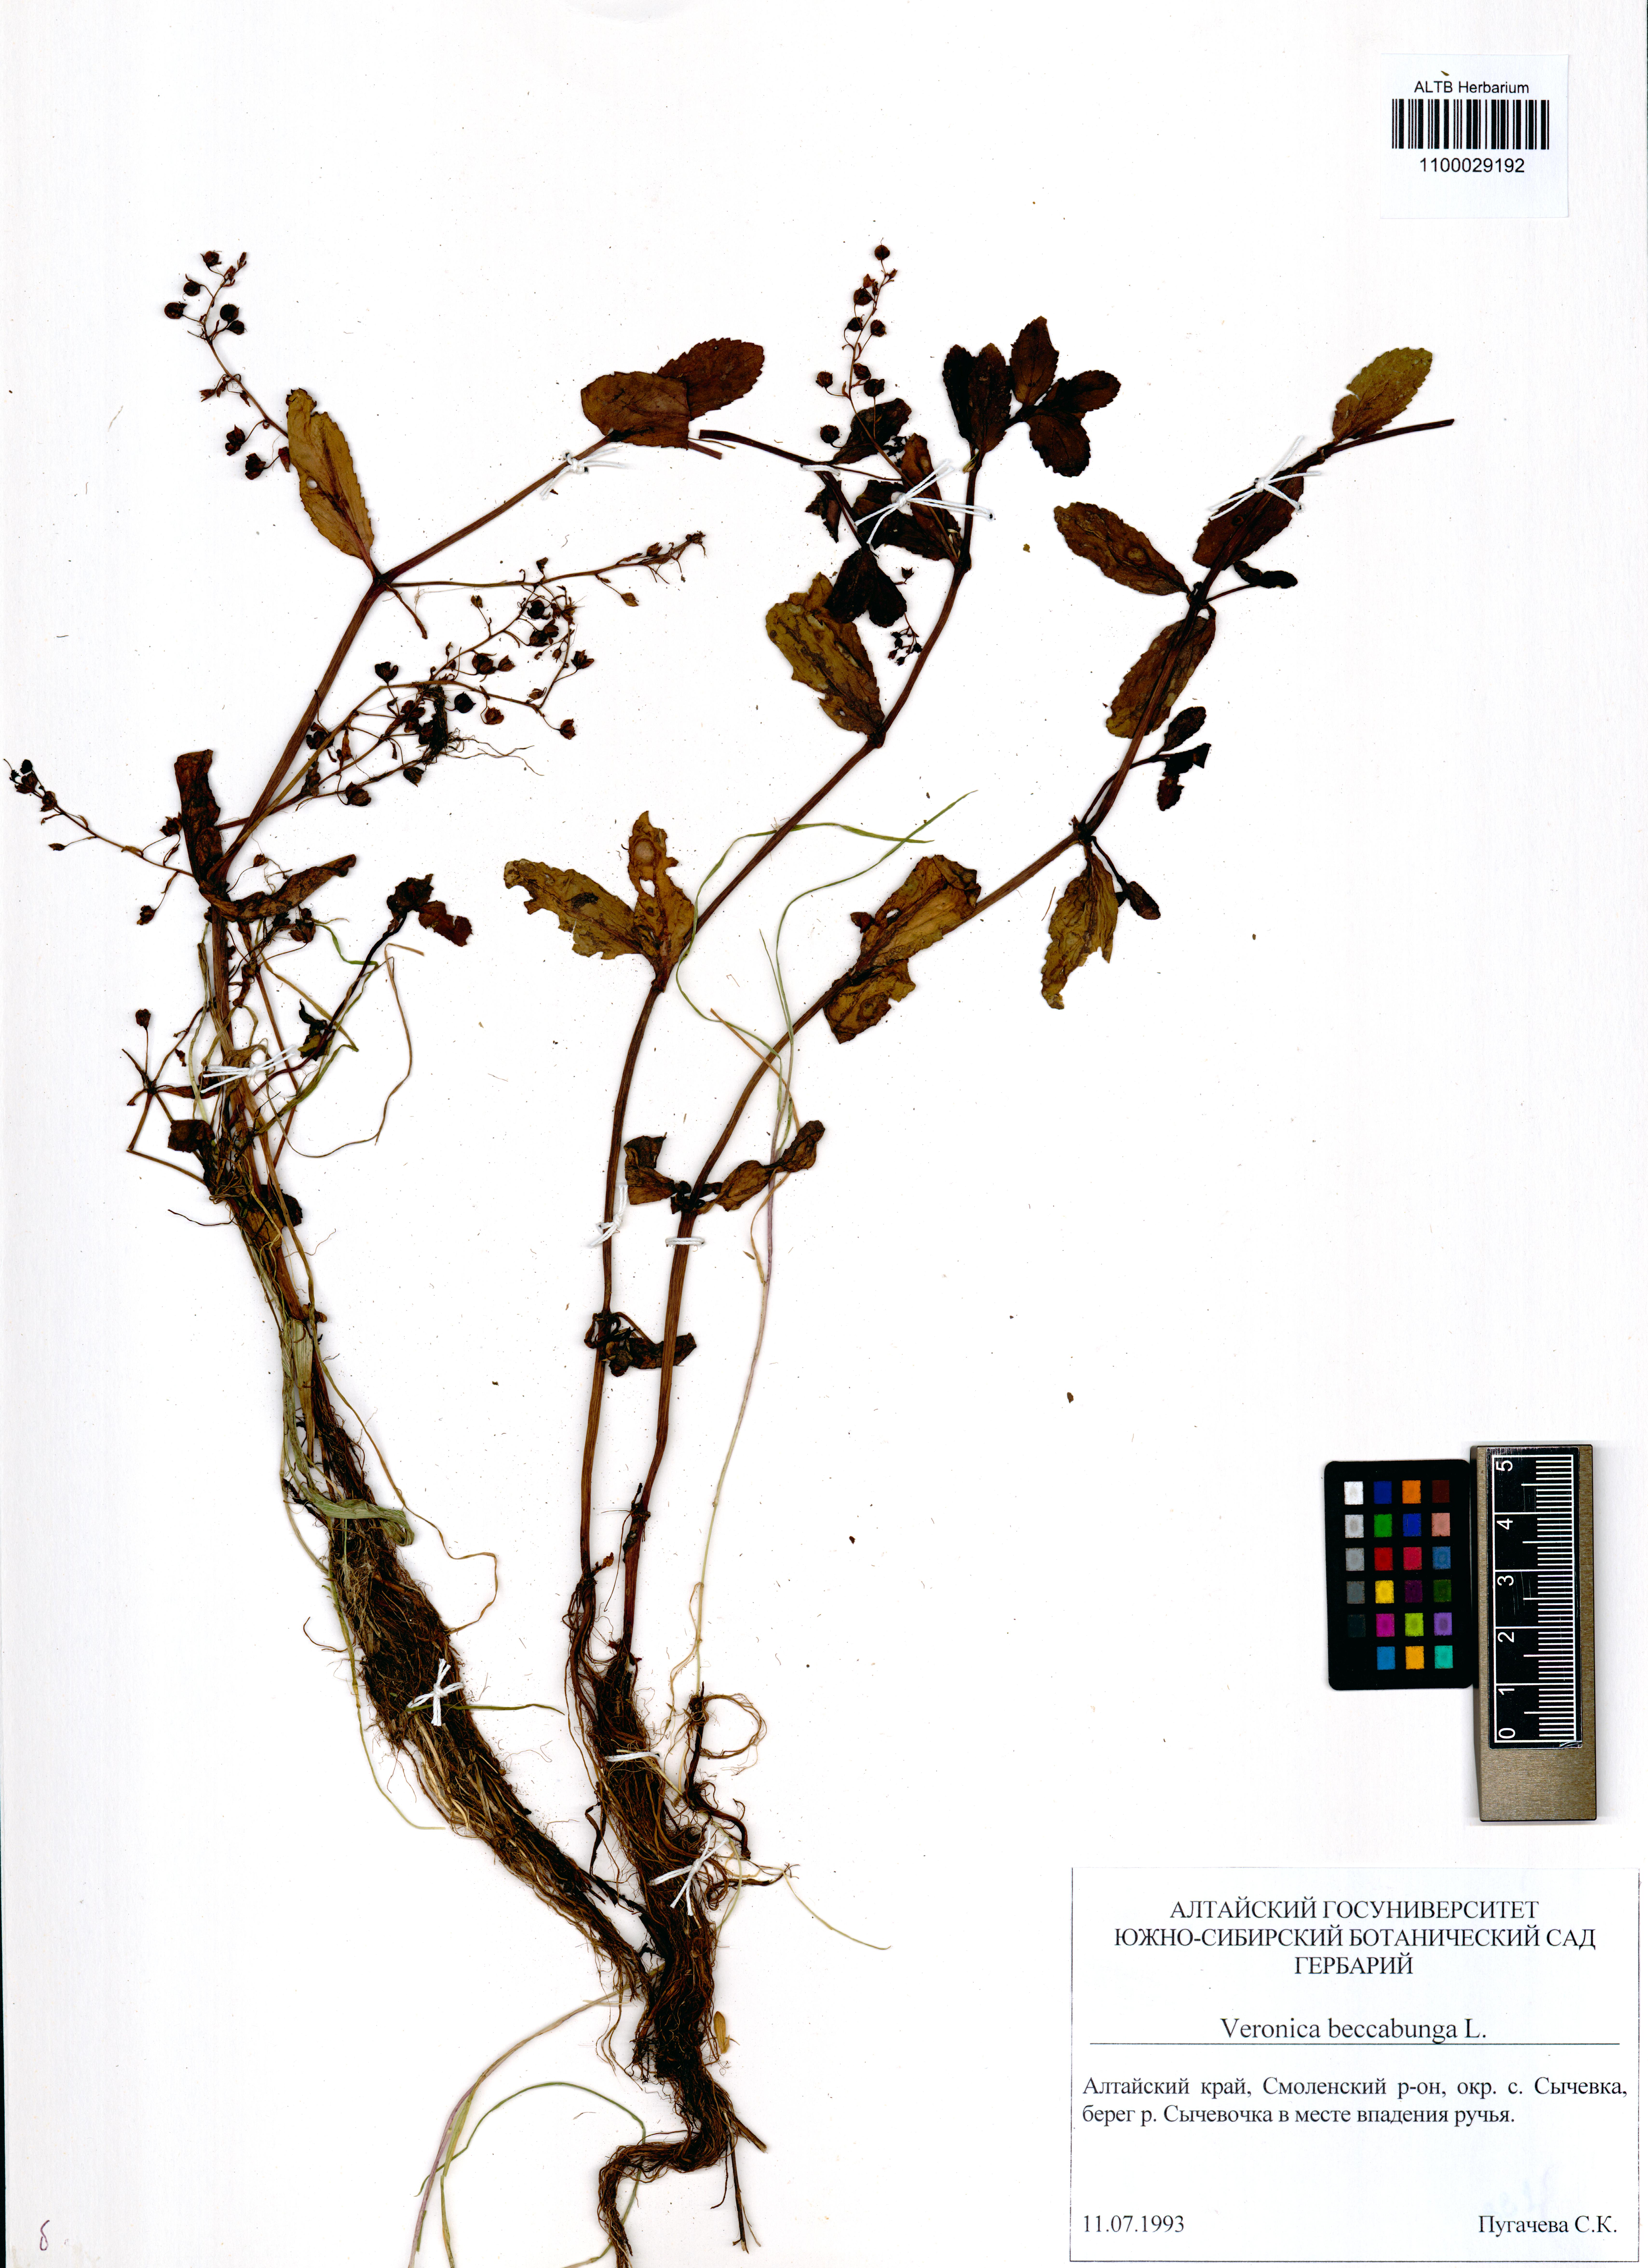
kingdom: Plantae
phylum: Tracheophyta
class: Magnoliopsida
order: Lamiales
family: Plantaginaceae
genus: Veronica
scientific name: Veronica beccabunga
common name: Brooklime
